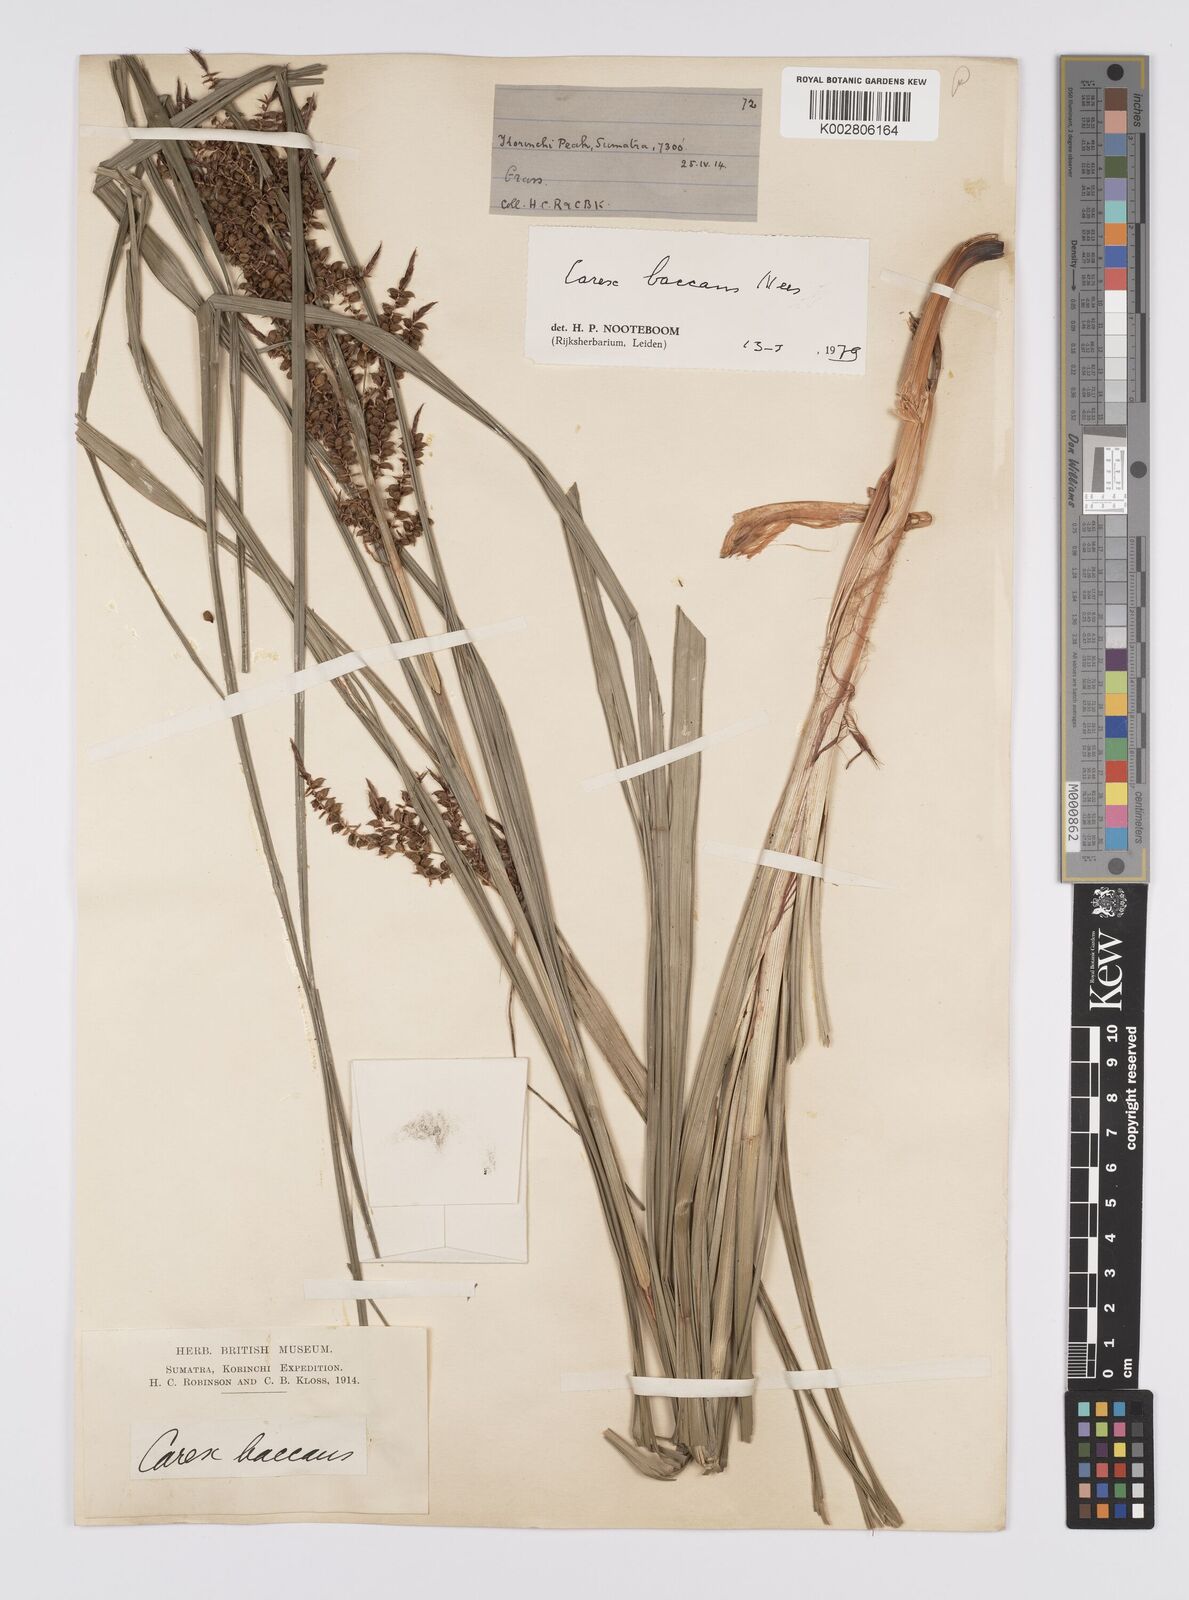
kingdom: Plantae
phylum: Tracheophyta
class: Liliopsida
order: Poales
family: Cyperaceae
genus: Carex
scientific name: Carex baccans
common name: Crimson seeded sedge
